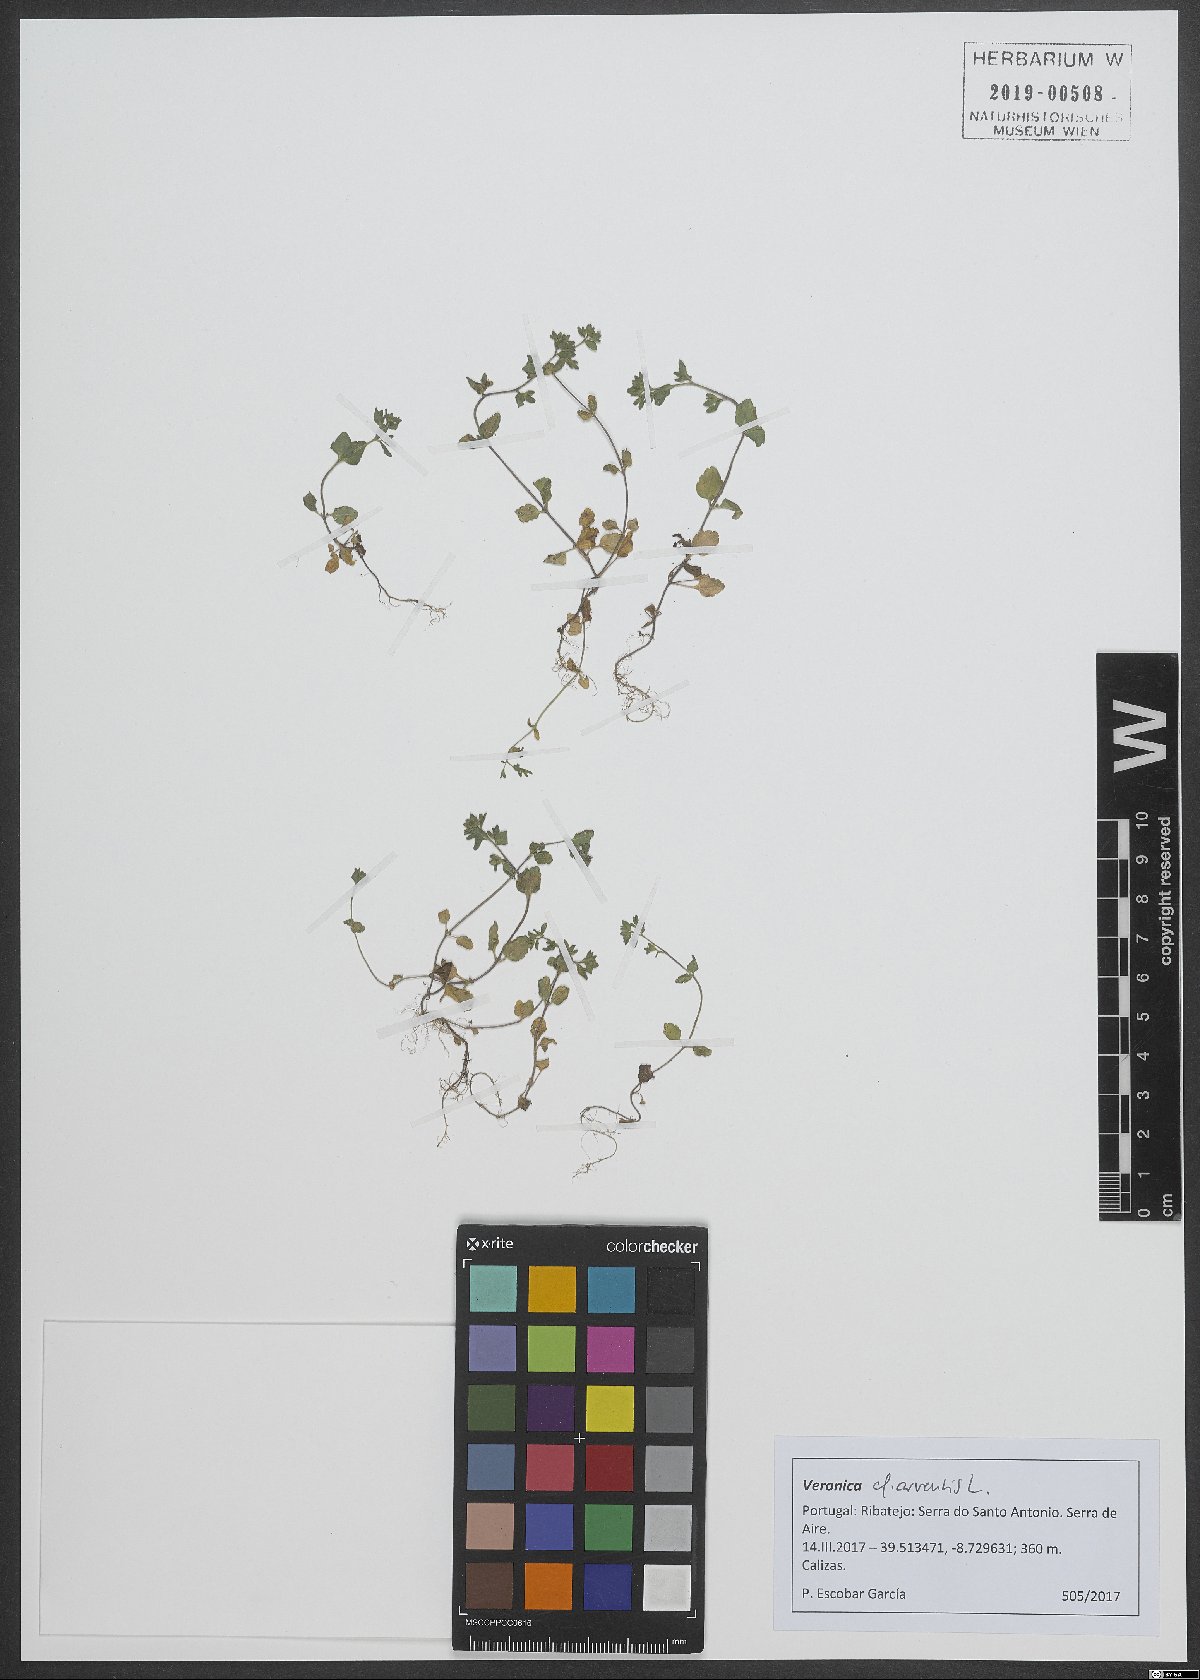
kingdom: Plantae
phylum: Tracheophyta
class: Magnoliopsida
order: Lamiales
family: Plantaginaceae
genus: Veronica
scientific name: Veronica arvensis
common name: Corn speedwell
